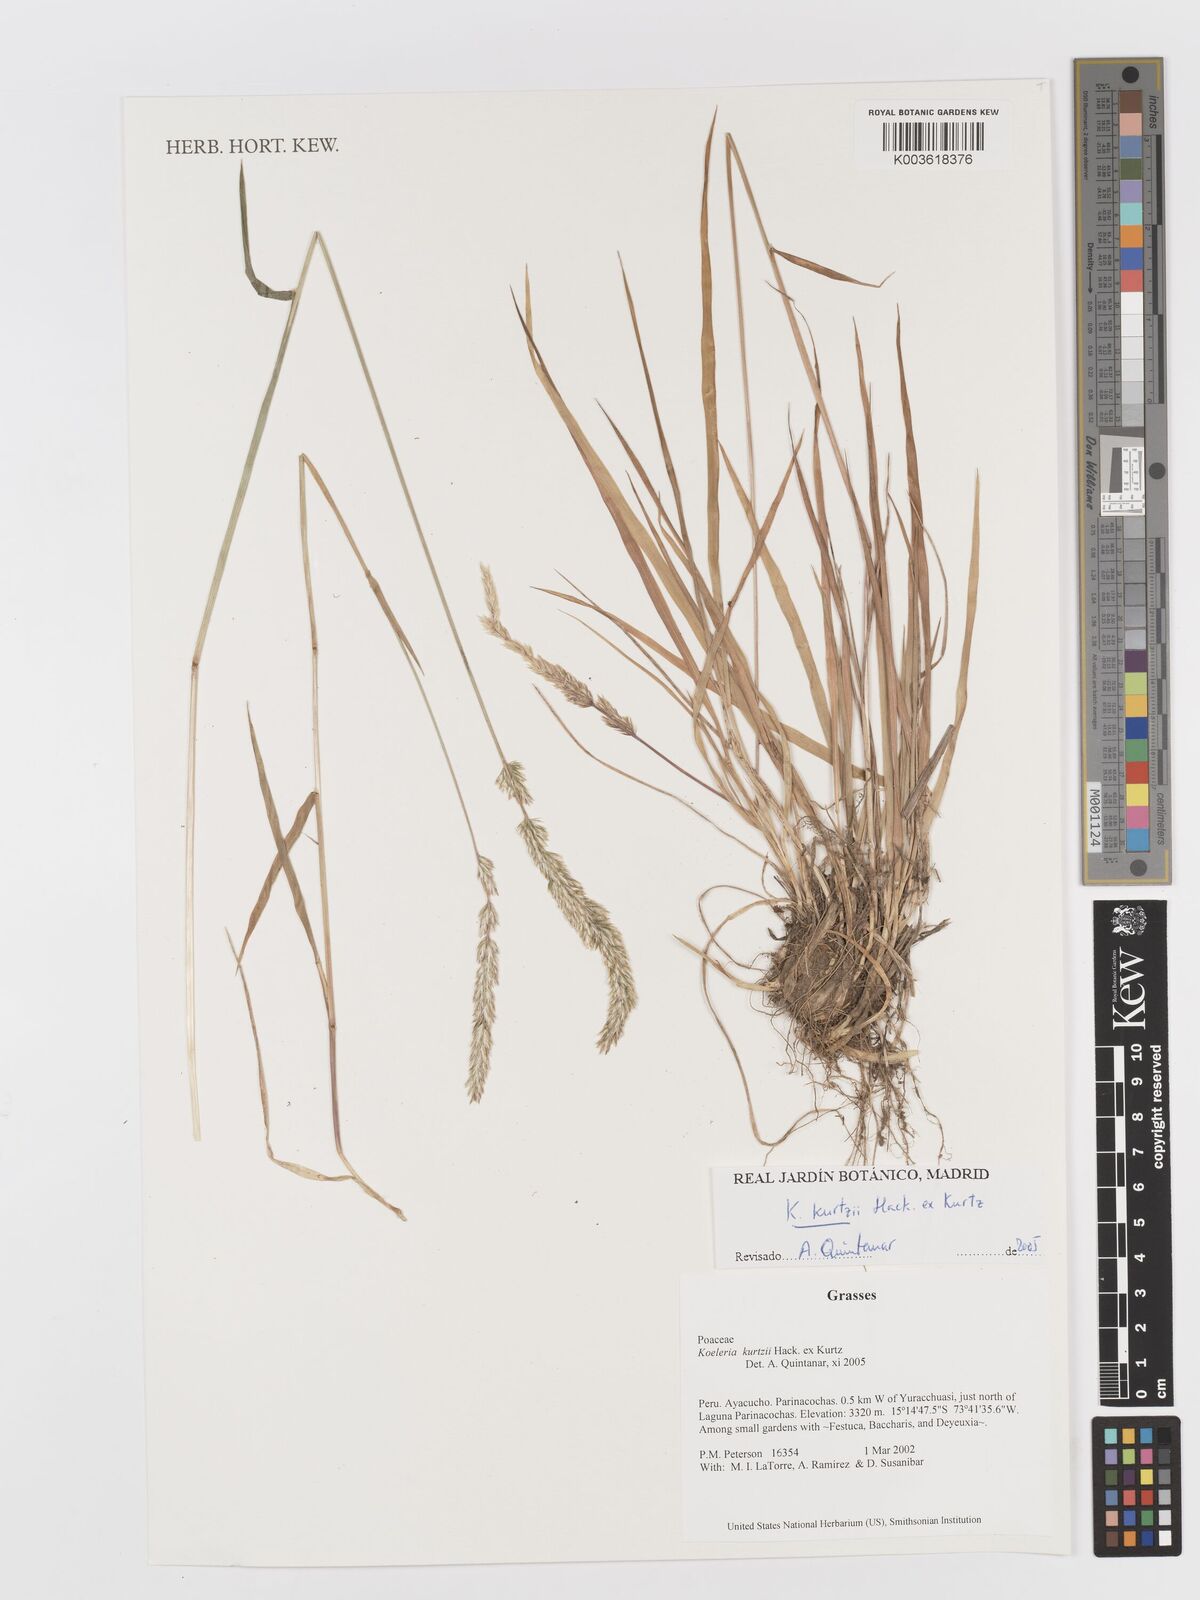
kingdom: Plantae
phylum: Tracheophyta
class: Liliopsida
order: Poales
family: Poaceae
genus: Koeleria
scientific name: Koeleria kurtzii
